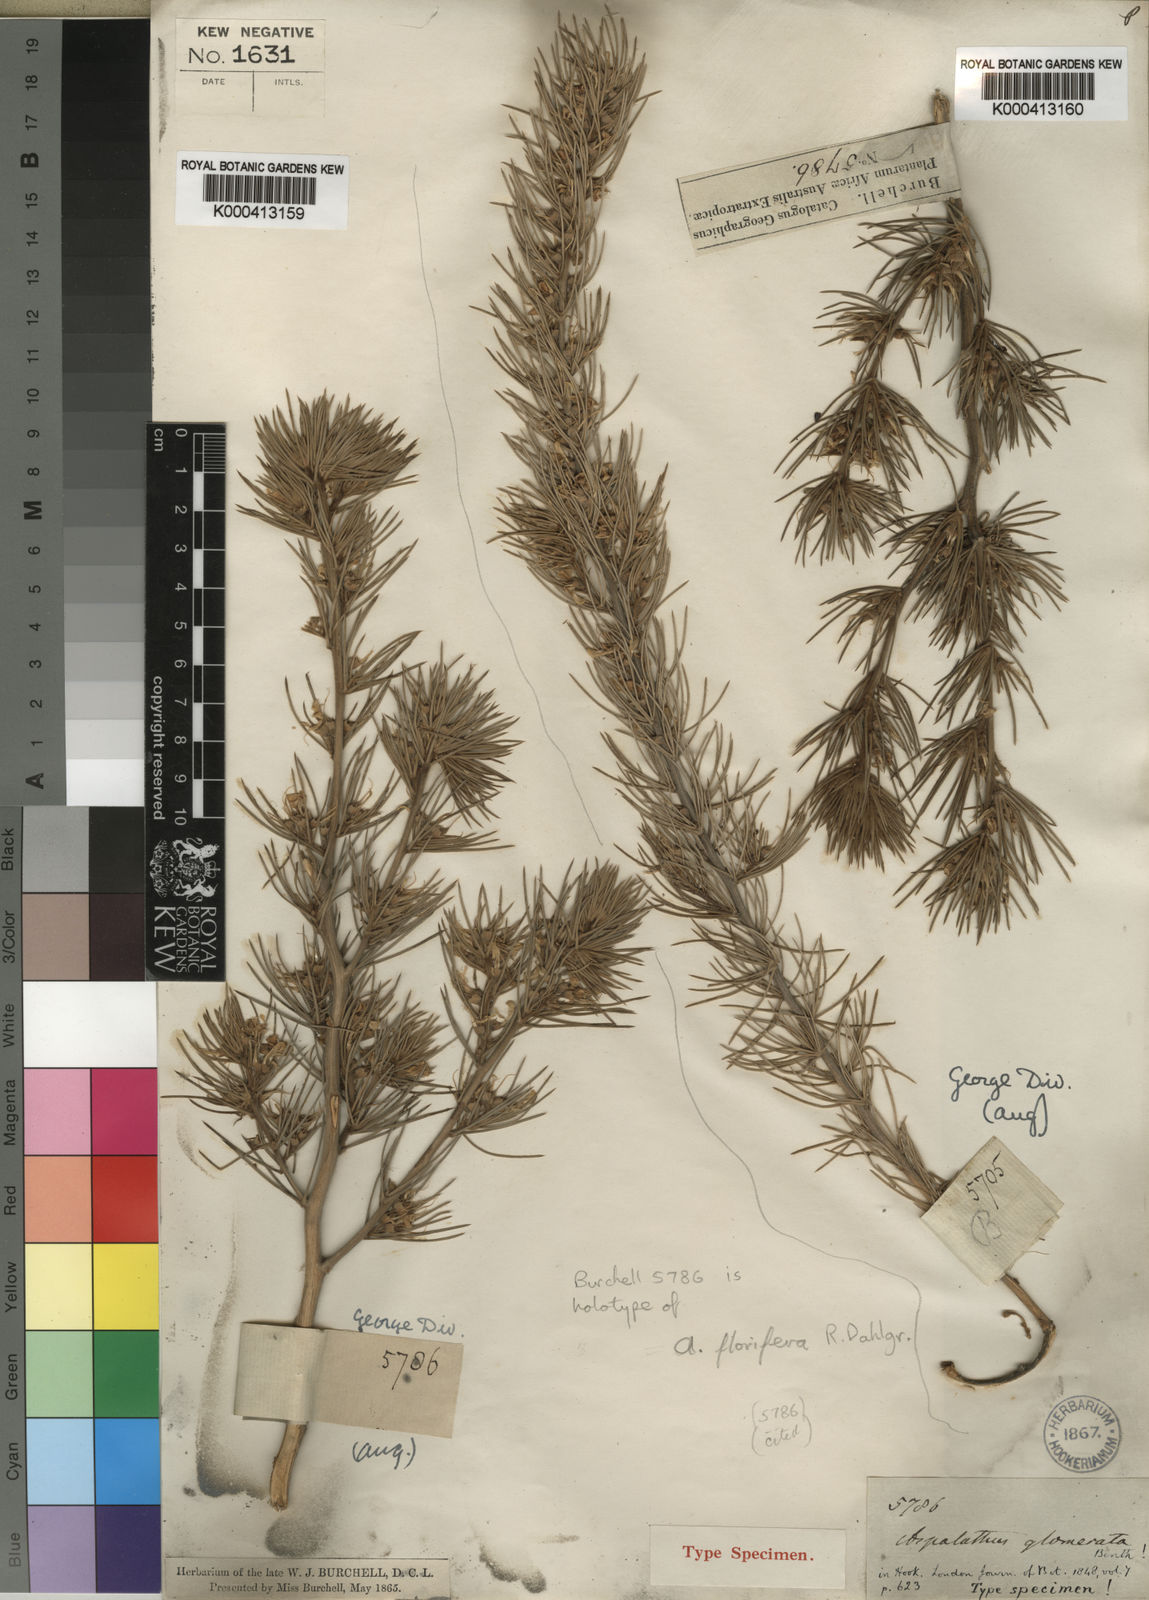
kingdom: Plantae
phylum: Tracheophyta
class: Magnoliopsida
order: Fabales
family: Fabaceae
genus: Aspalathus
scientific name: Aspalathus florifera
